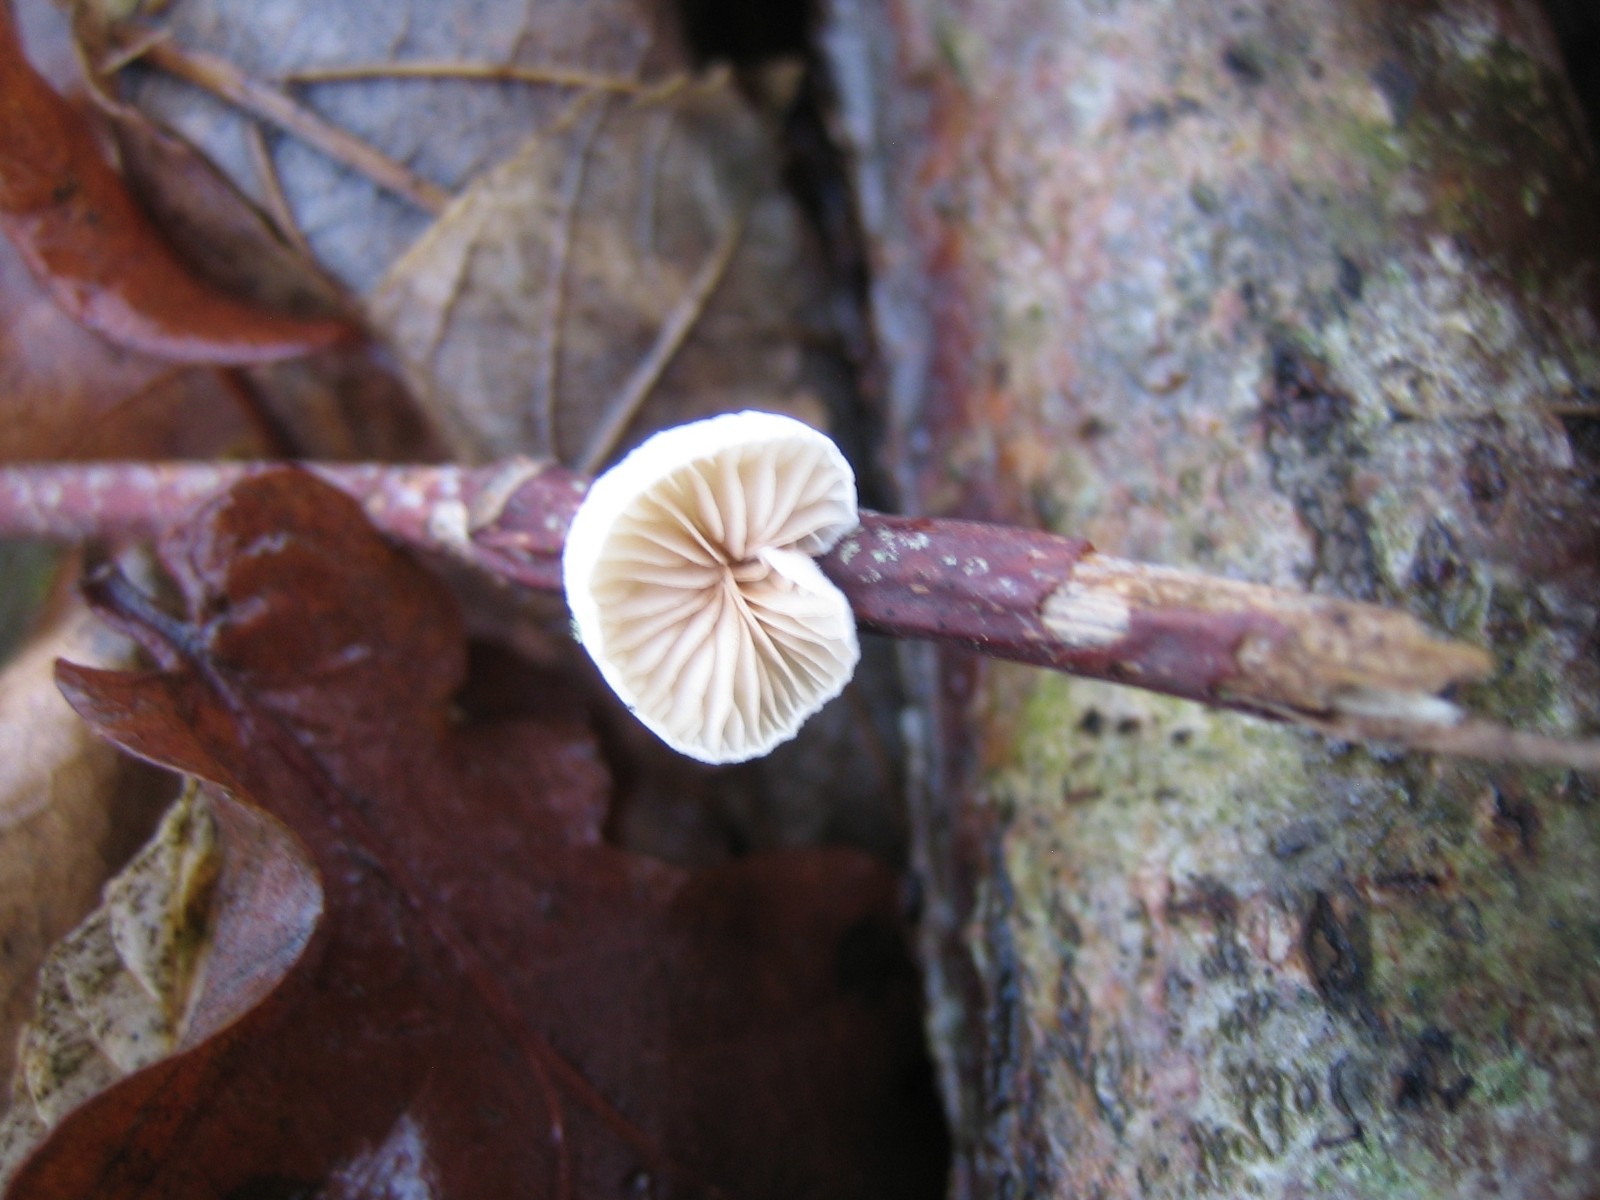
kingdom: Fungi
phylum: Basidiomycota
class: Agaricomycetes
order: Agaricales
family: Crepidotaceae
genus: Crepidotus
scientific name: Crepidotus
